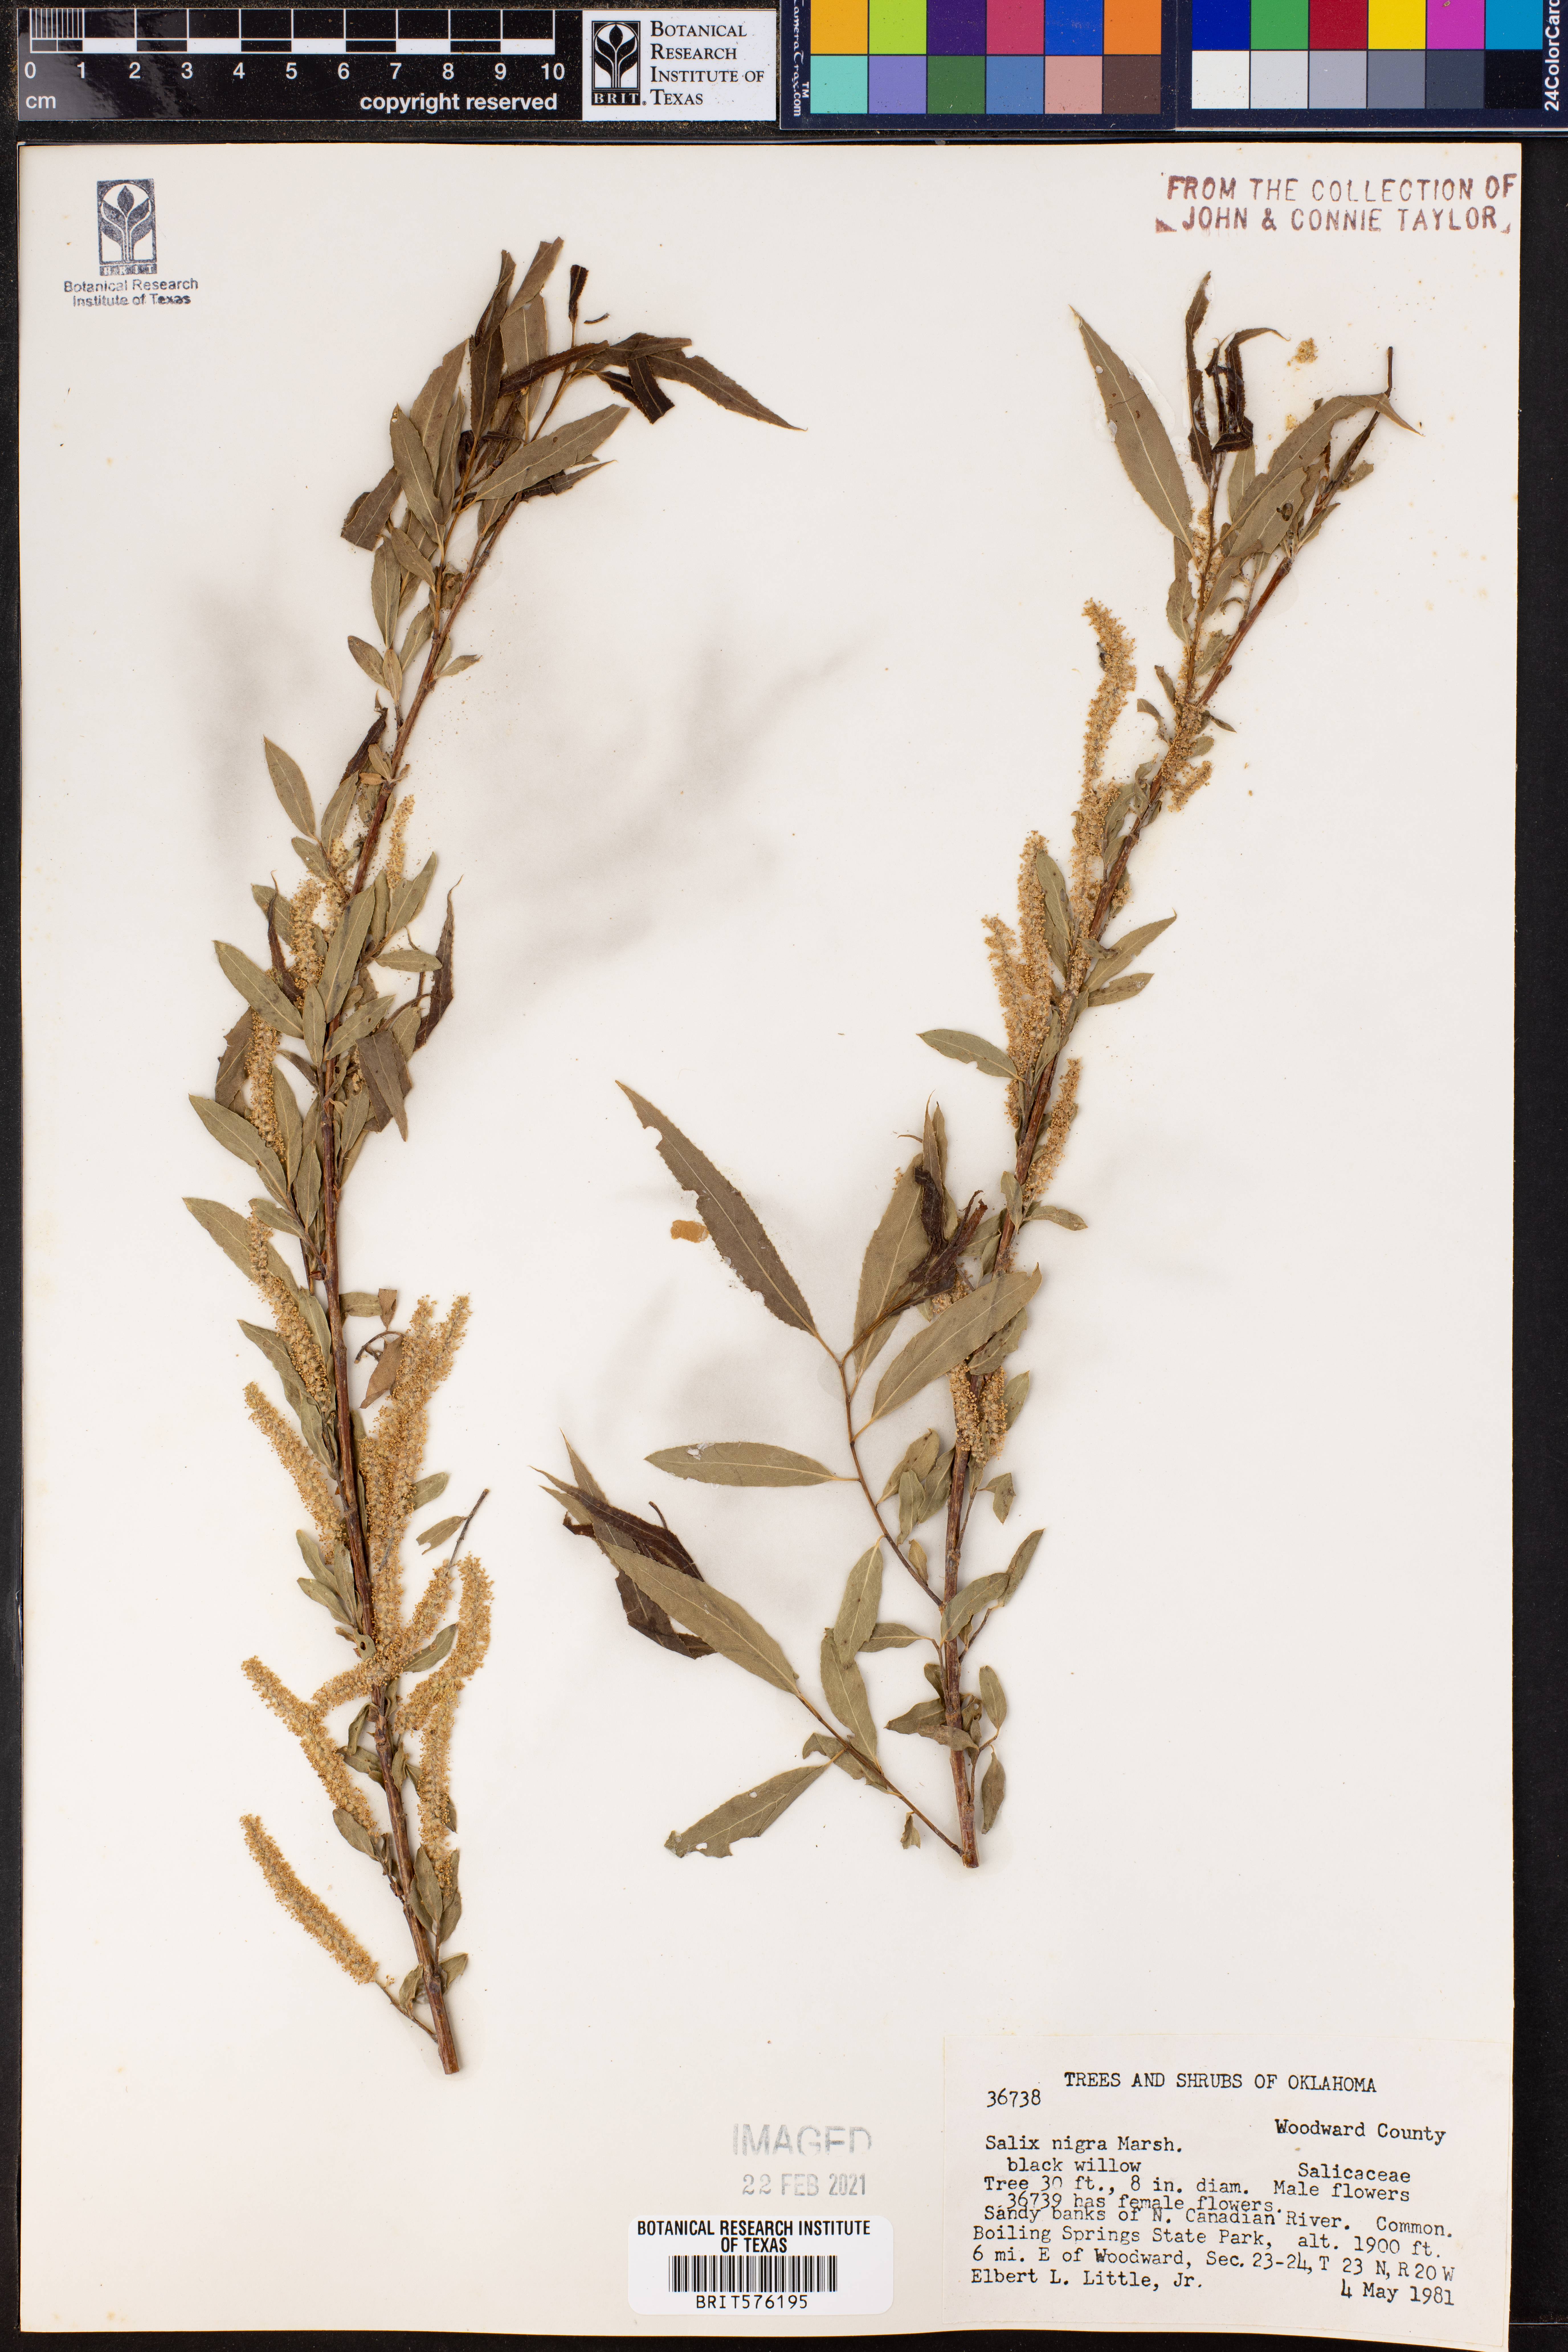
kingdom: Plantae
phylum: Tracheophyta
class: Magnoliopsida
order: Malpighiales
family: Salicaceae
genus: Salix
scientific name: Salix nigra
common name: Black willow
